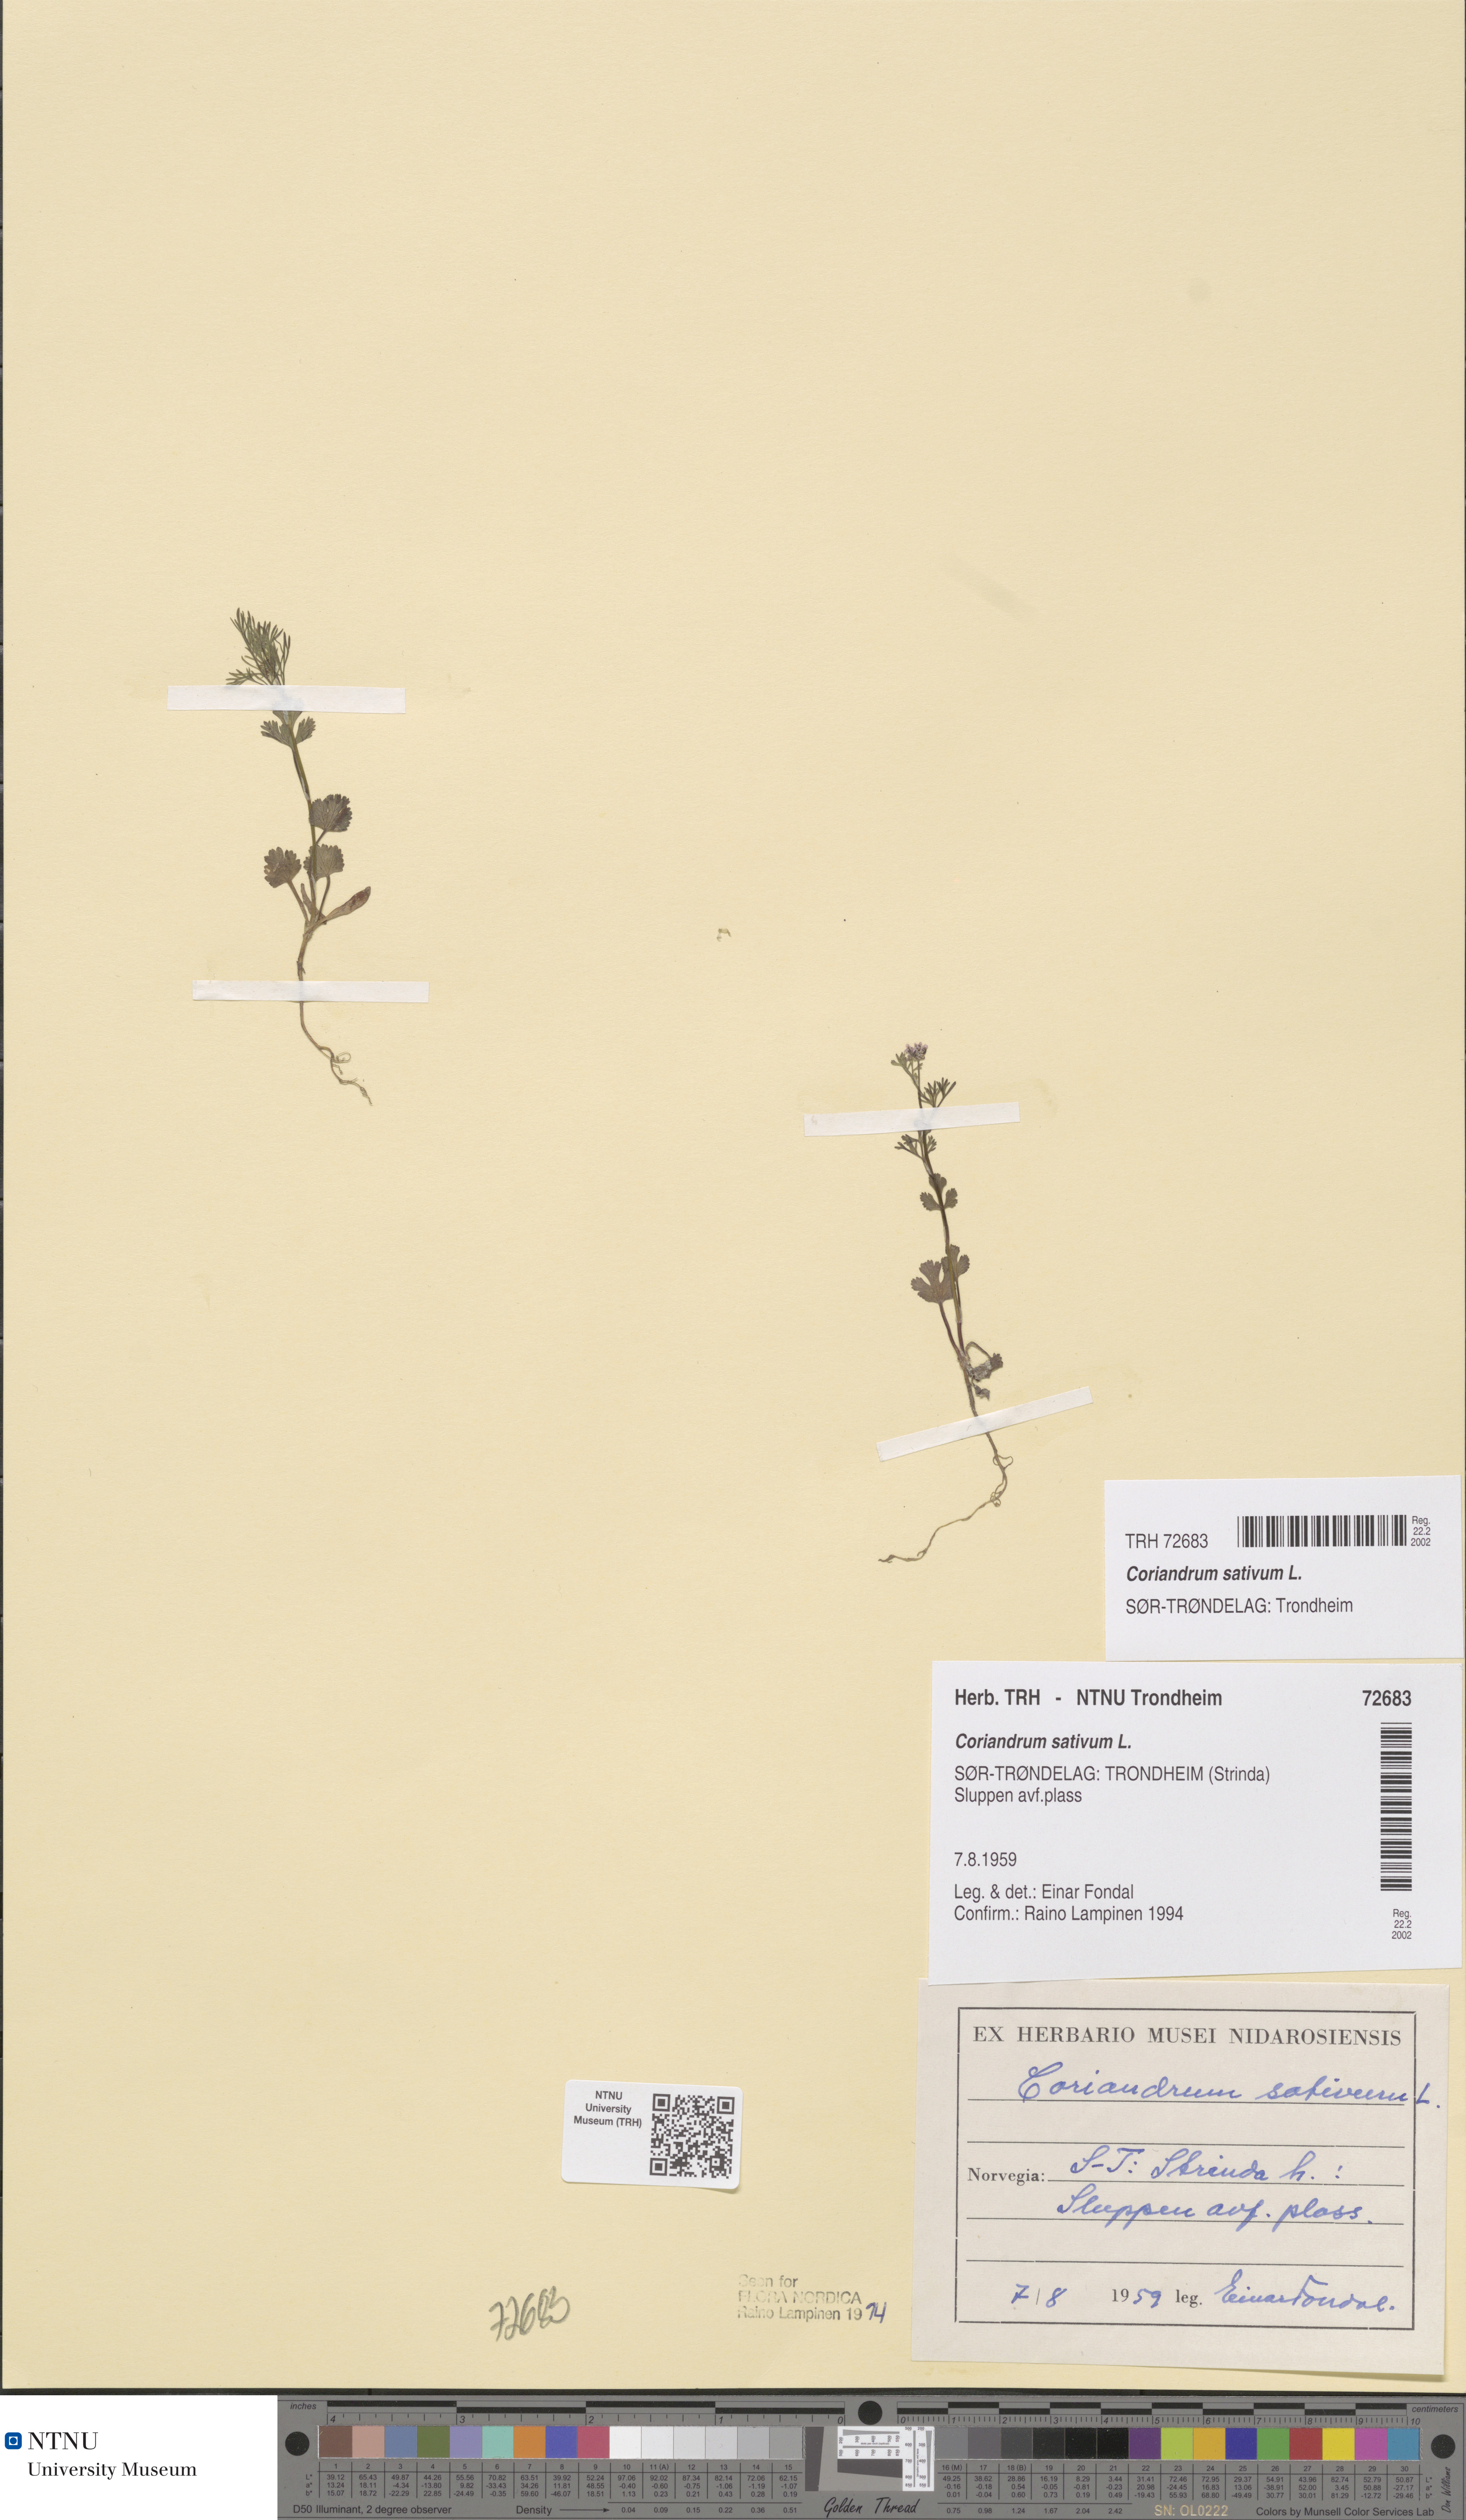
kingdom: Plantae
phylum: Tracheophyta
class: Magnoliopsida
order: Apiales
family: Apiaceae
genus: Coriandrum
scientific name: Coriandrum sativum
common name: Coriander
